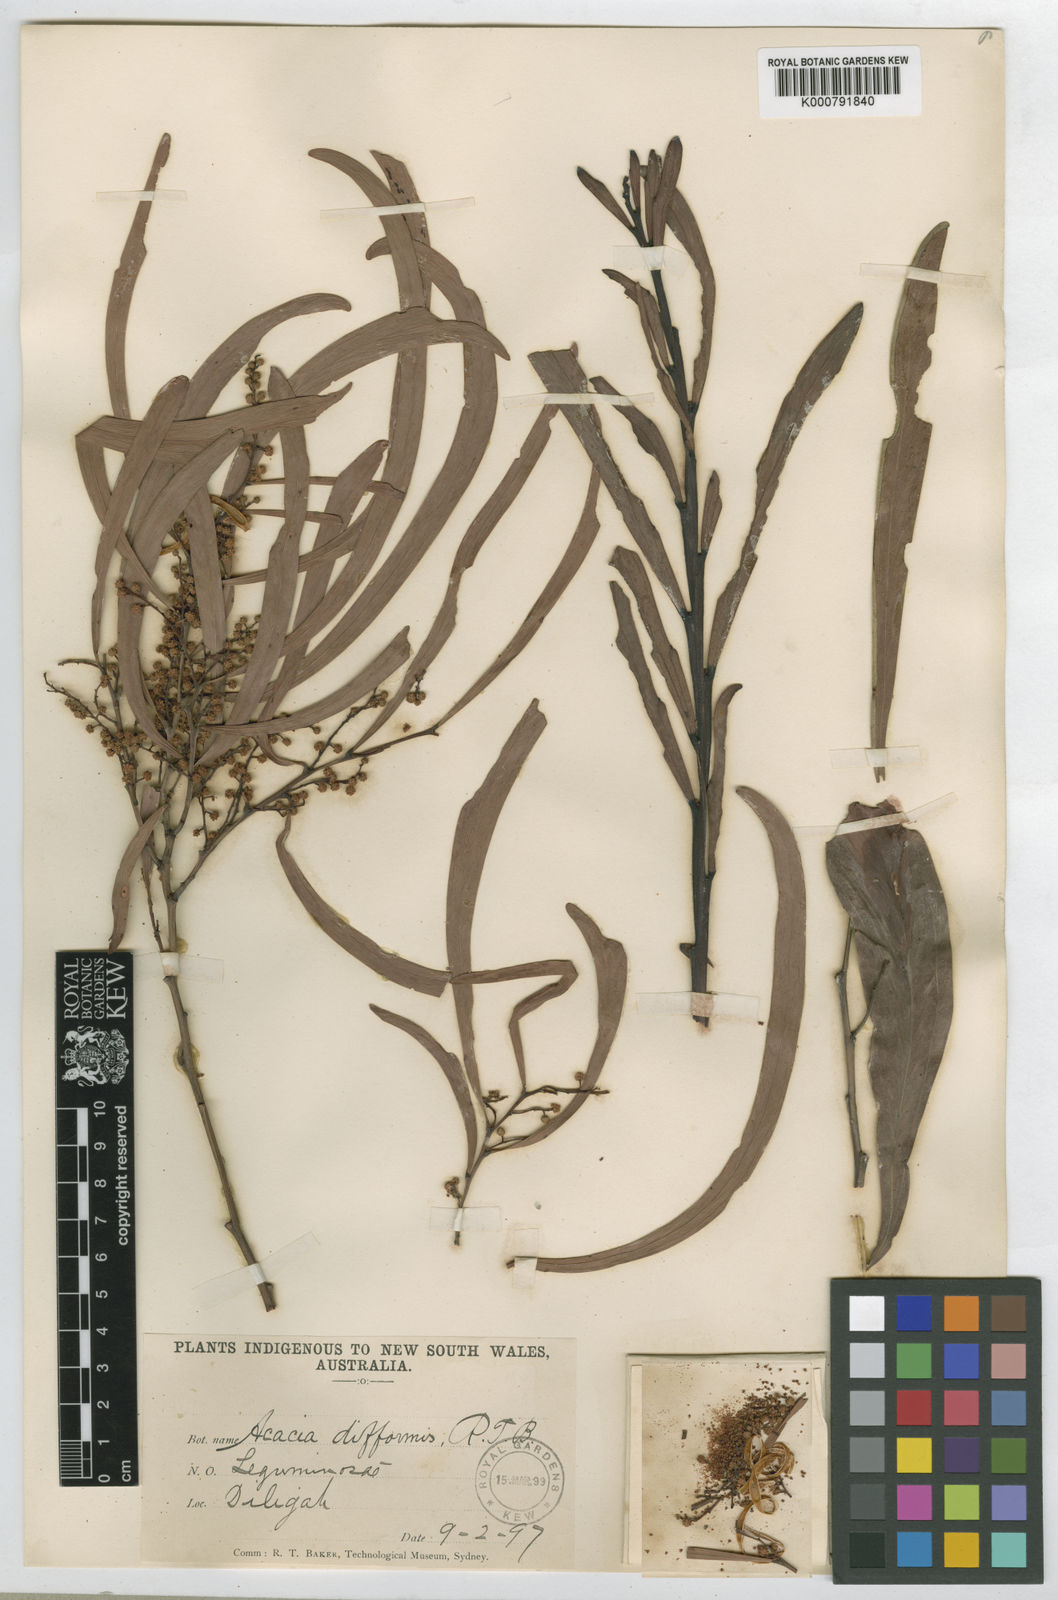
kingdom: Plantae
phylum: Tracheophyta
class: Magnoliopsida
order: Fabales
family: Fabaceae
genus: Acacia
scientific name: Acacia difformis
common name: Drooping wattle
